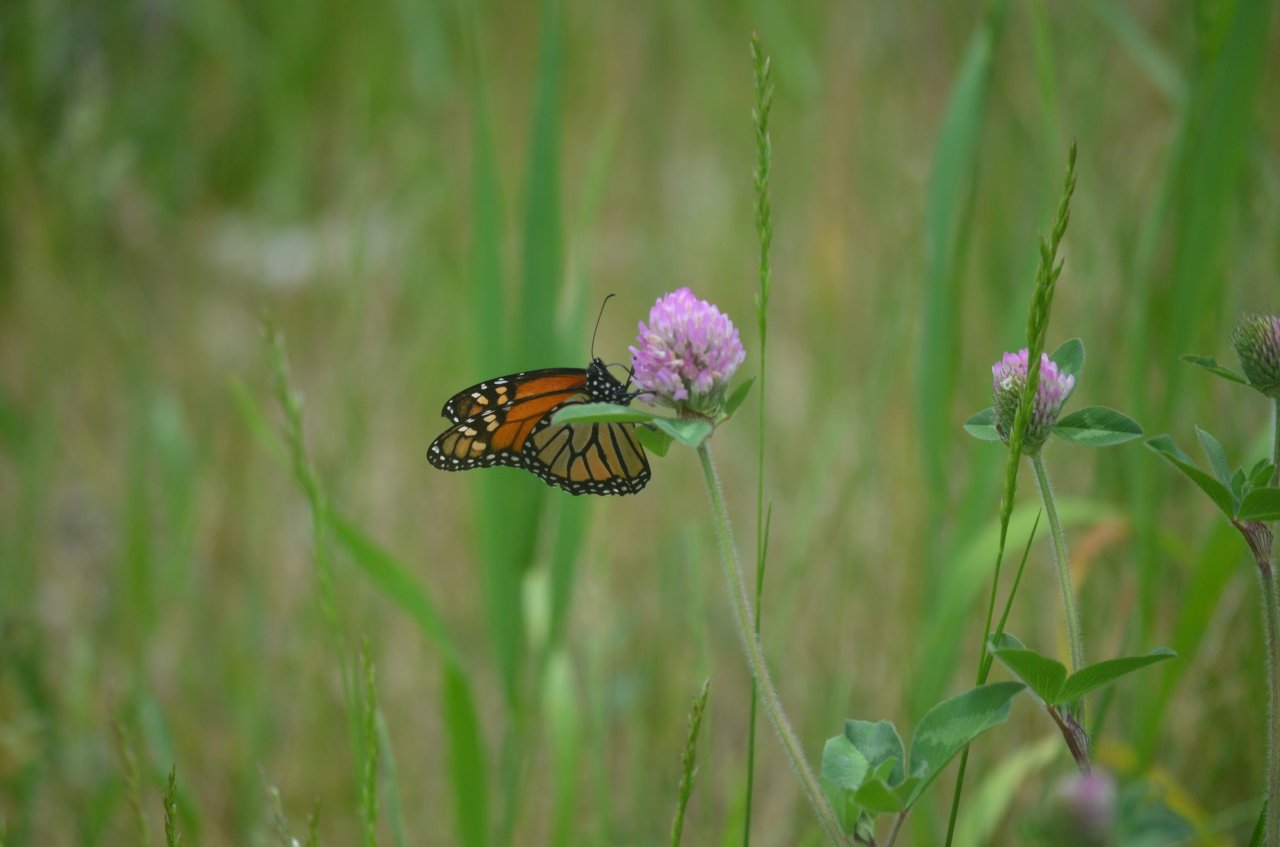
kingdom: Animalia
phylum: Arthropoda
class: Insecta
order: Lepidoptera
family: Nymphalidae
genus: Danaus
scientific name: Danaus plexippus
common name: Monarch
